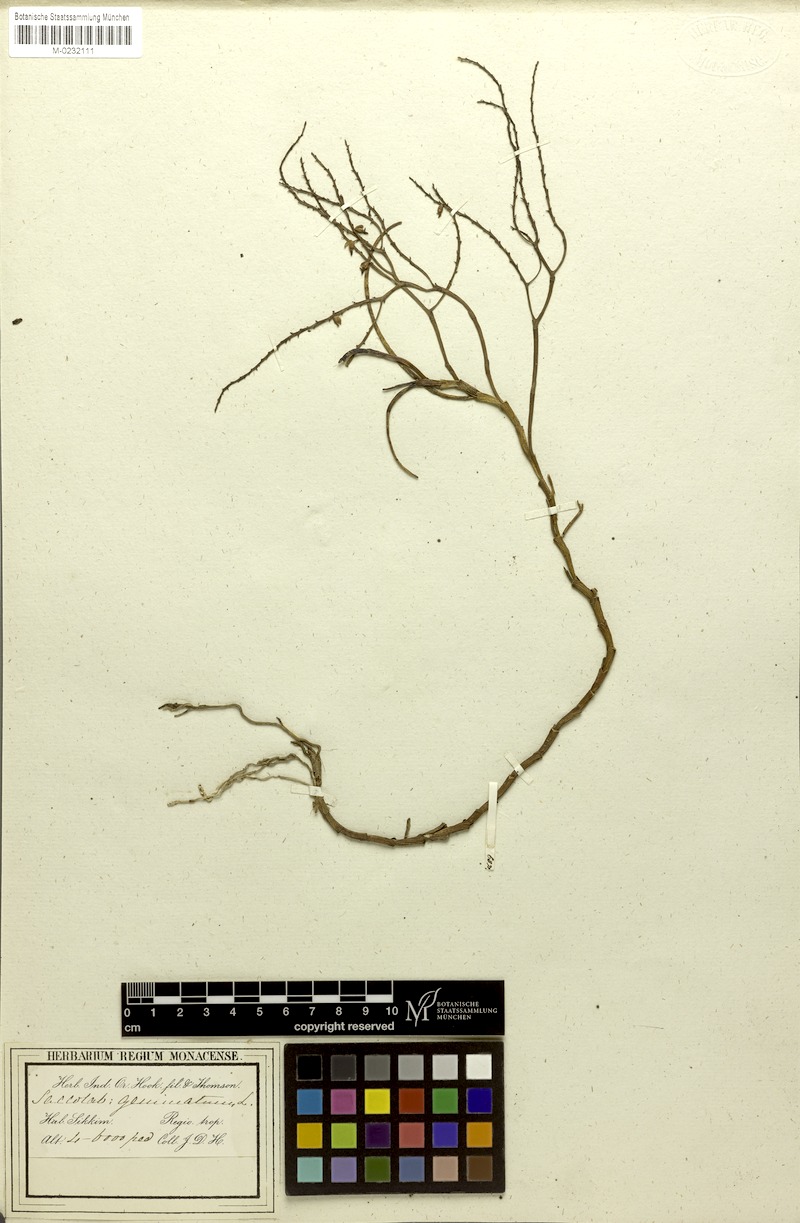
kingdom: Plantae
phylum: Tracheophyta
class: Liliopsida
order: Asparagales
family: Orchidaceae
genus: Saccolabium
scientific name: Saccolabium geminatum
